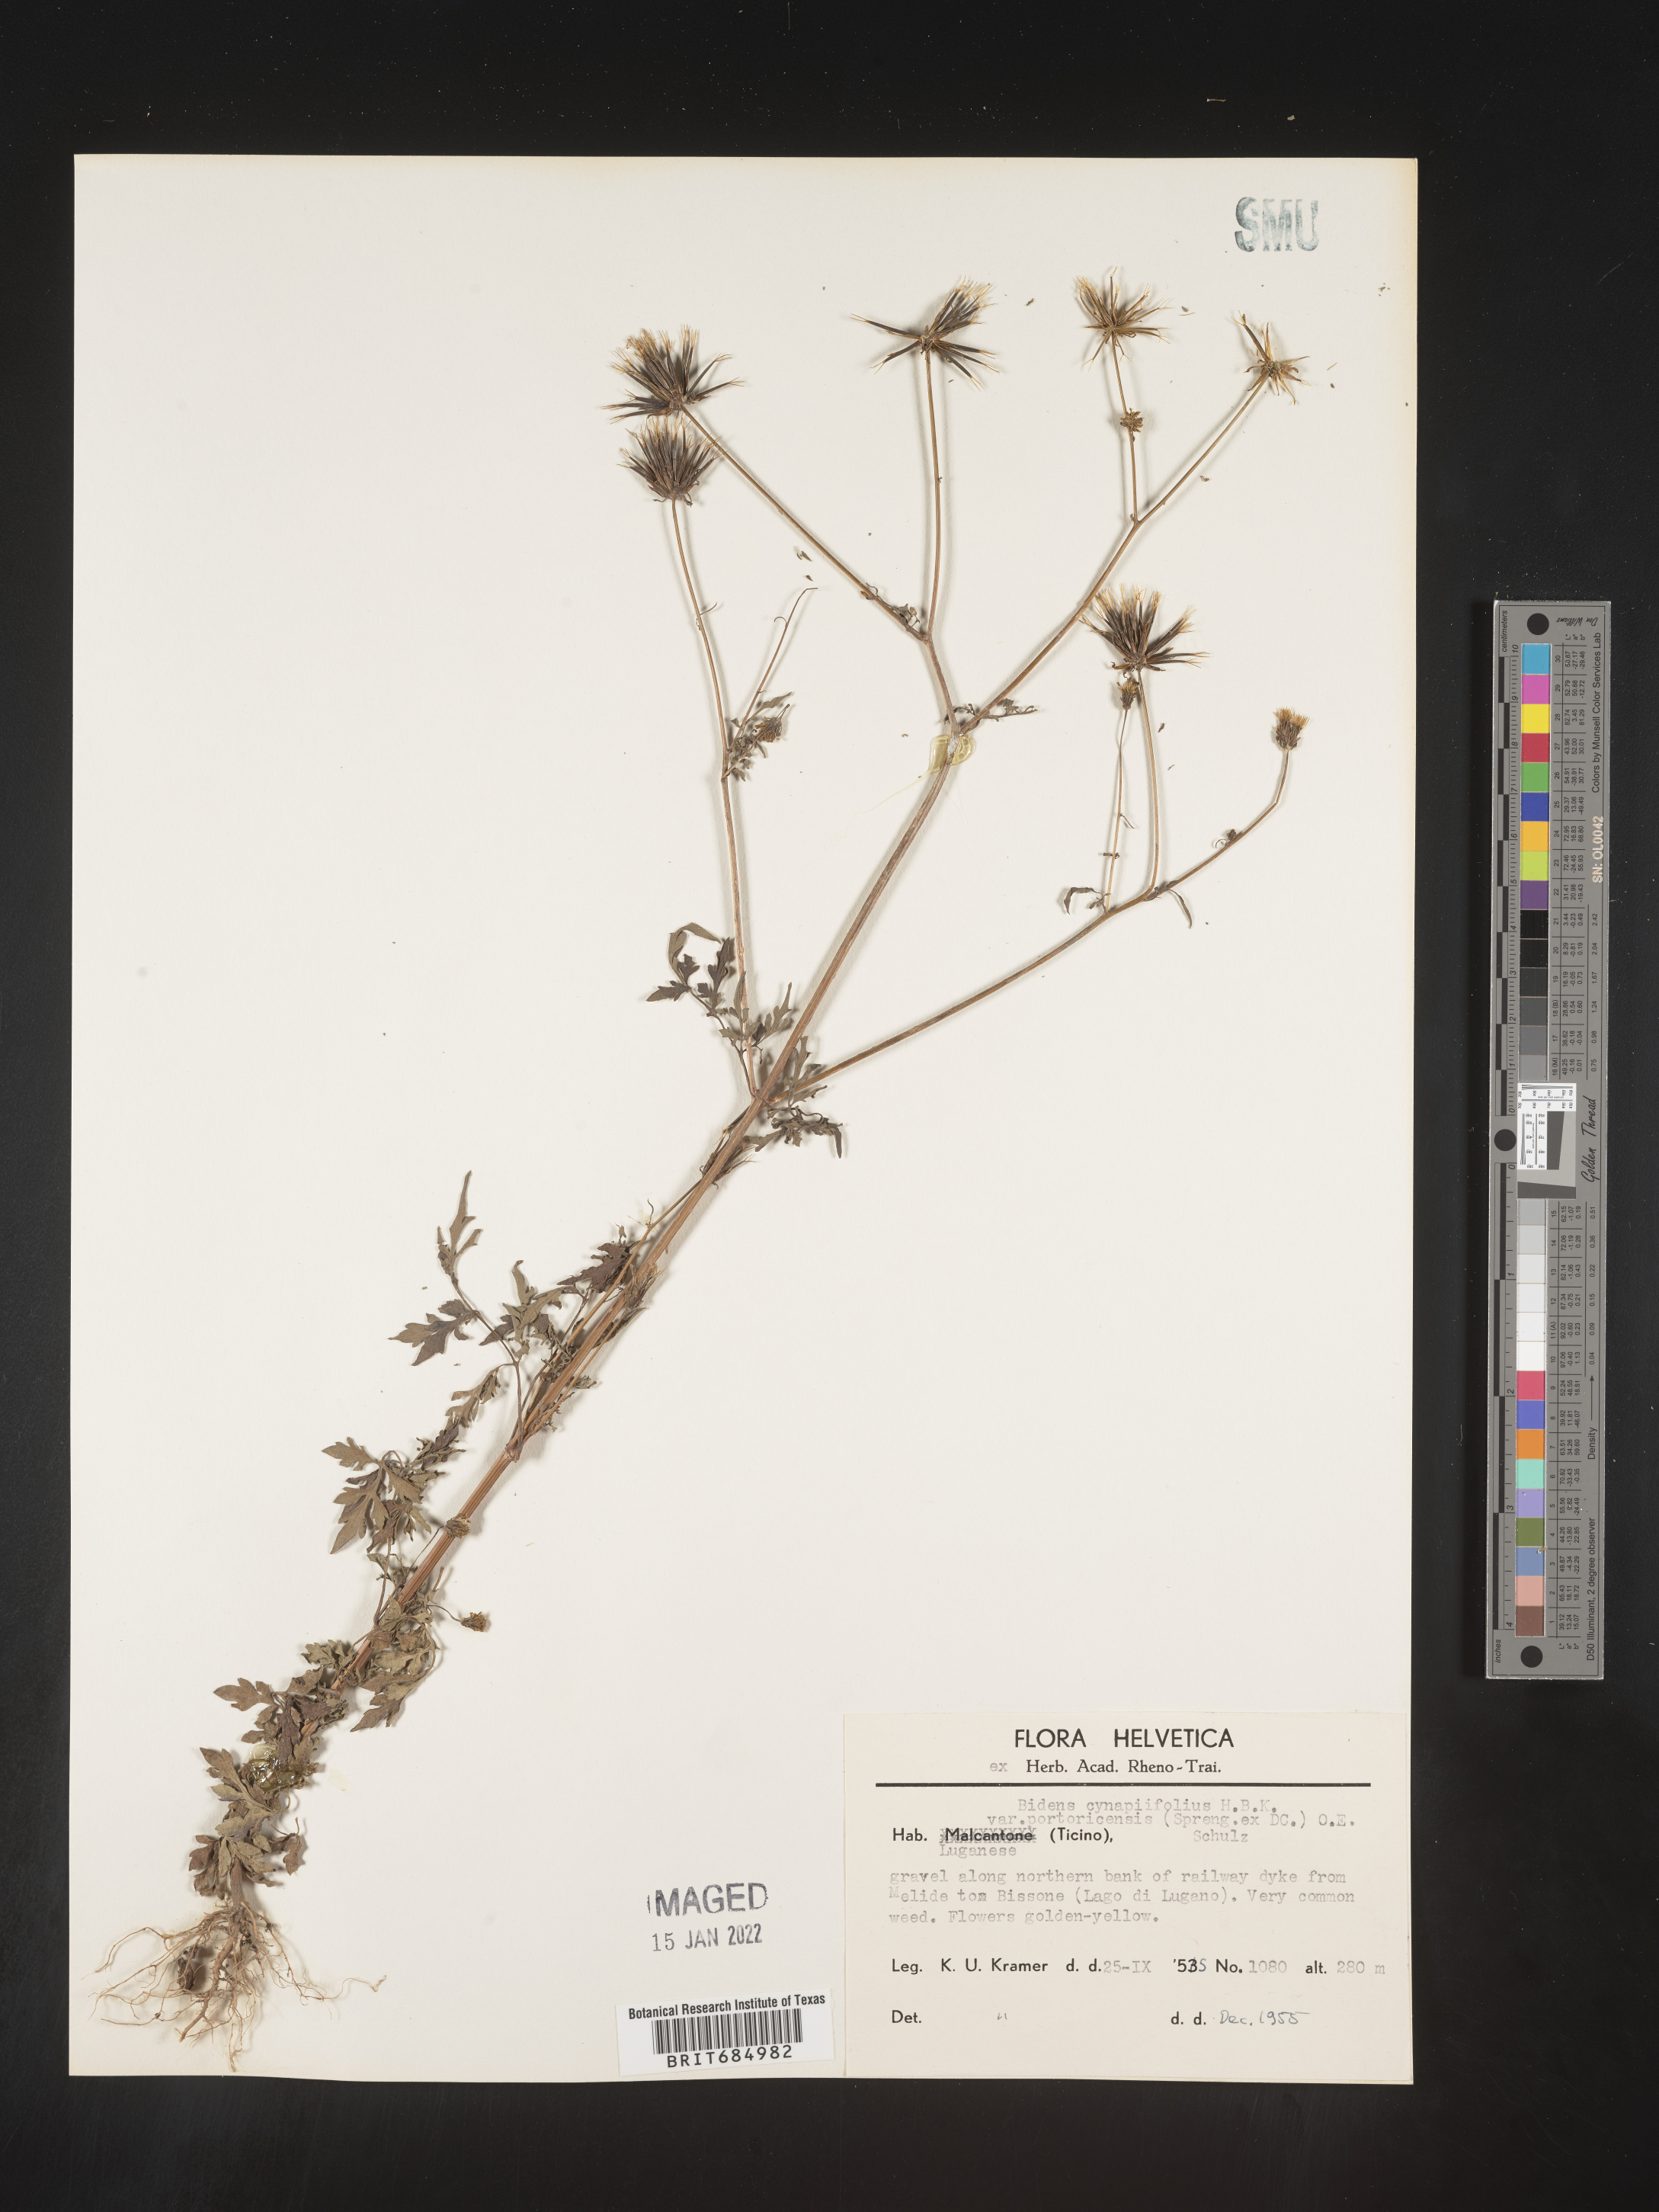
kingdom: Plantae
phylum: Tracheophyta
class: Magnoliopsida
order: Asterales
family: Asteraceae
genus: Bidens
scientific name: Bidens
